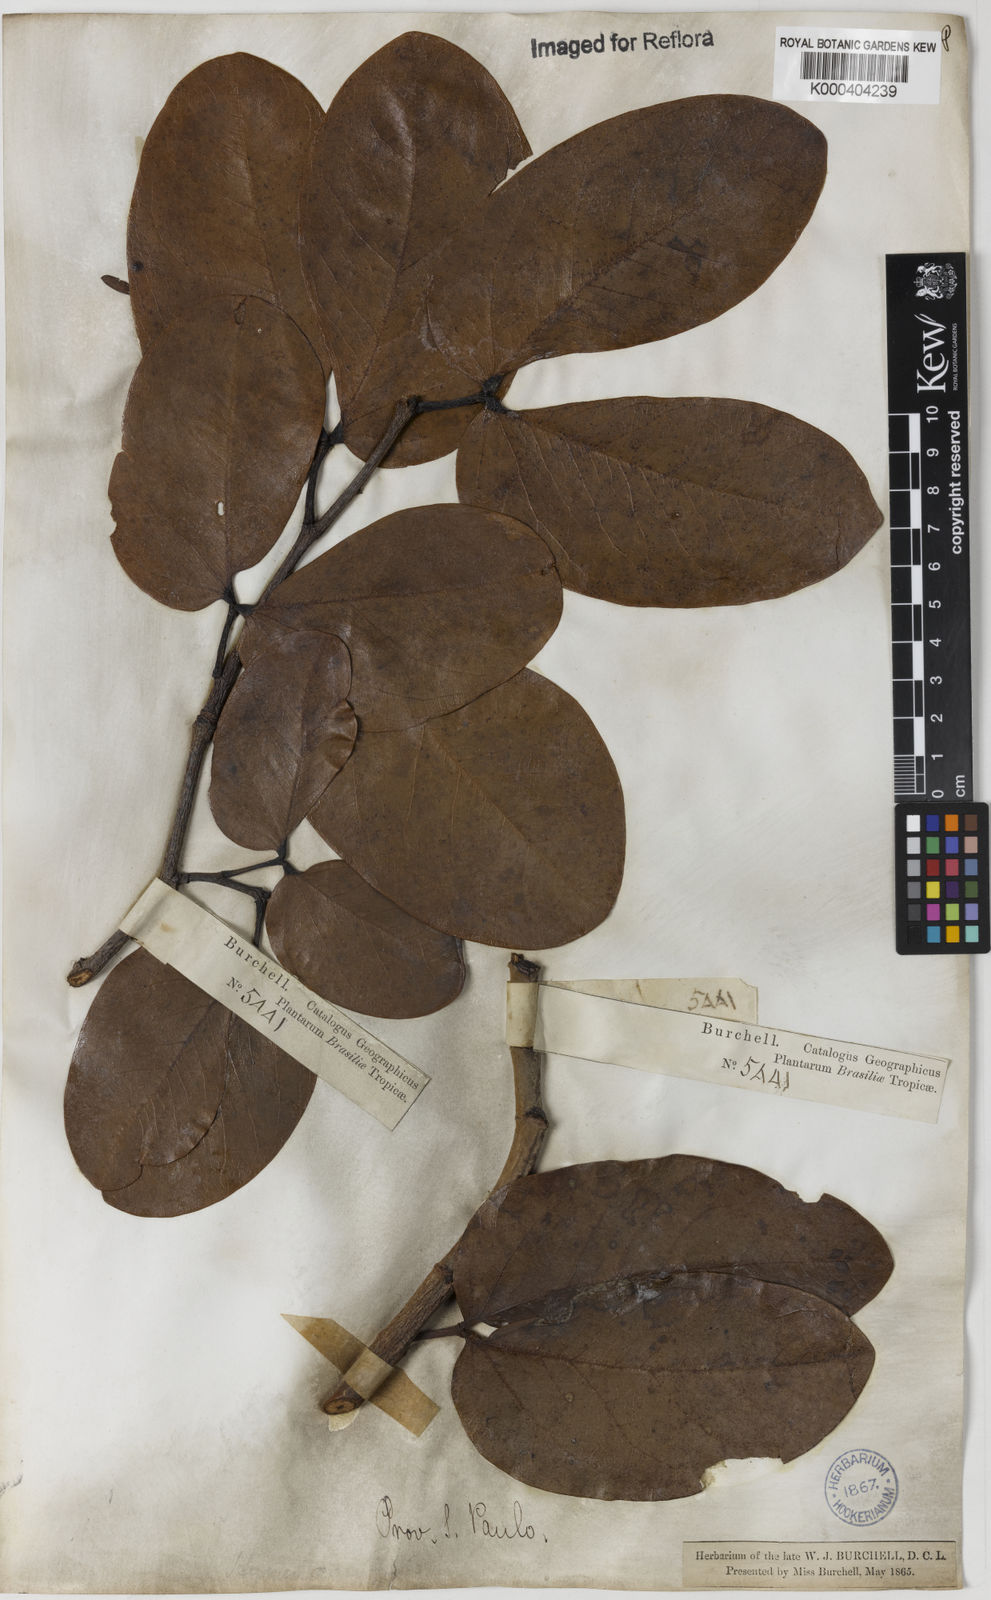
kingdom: Plantae
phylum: Tracheophyta
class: Magnoliopsida
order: Fabales
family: Fabaceae
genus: Hymenaea
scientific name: Hymenaea stigonocarpa
